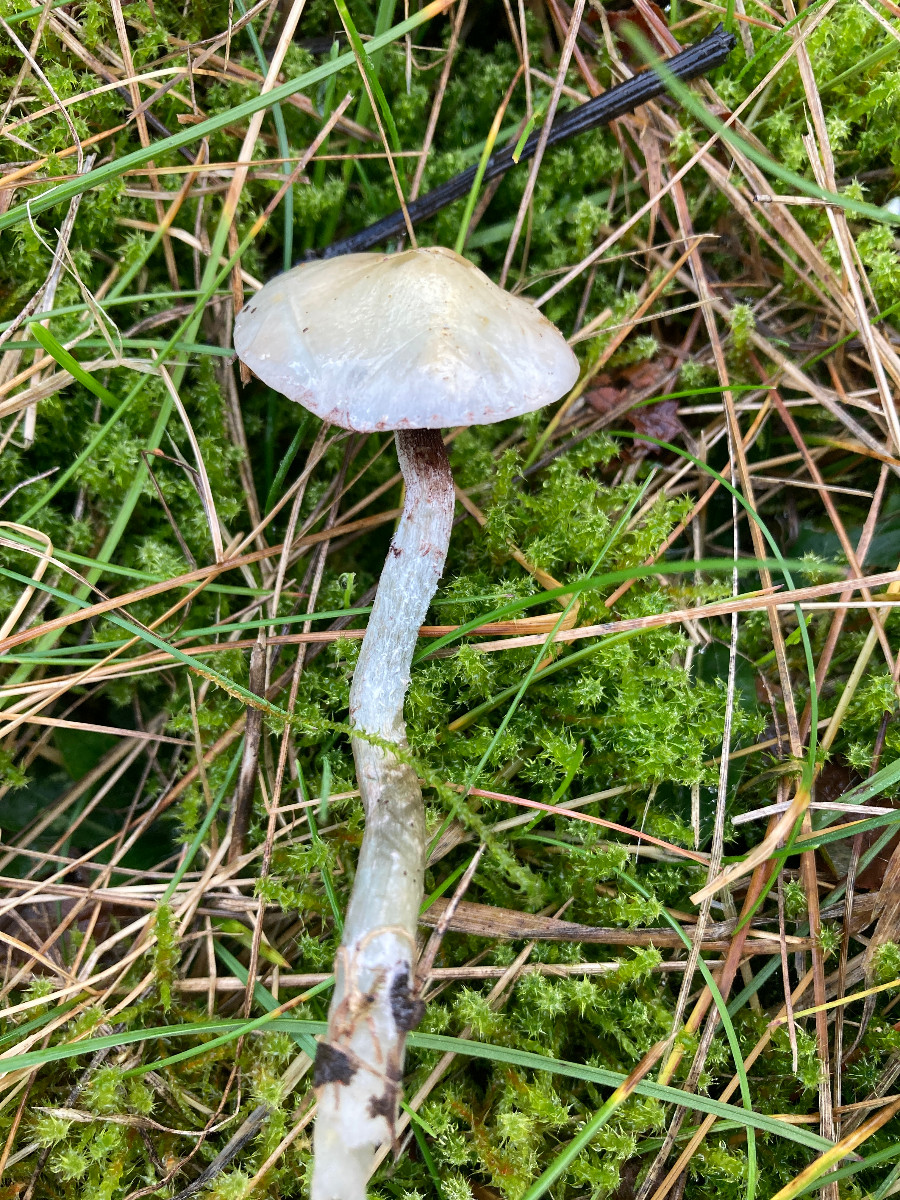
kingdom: Fungi
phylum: Basidiomycota
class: Agaricomycetes
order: Agaricales
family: Strophariaceae
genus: Stropharia
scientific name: Stropharia cyanea
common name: blågrøn bredblad
